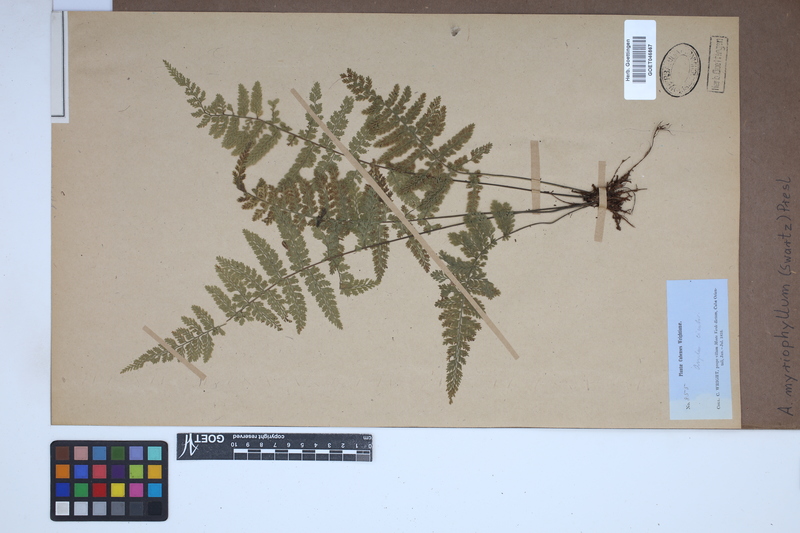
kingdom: Plantae
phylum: Tracheophyta
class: Polypodiopsida
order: Polypodiales
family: Aspleniaceae
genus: Asplenium
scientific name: Asplenium myriophyllum
